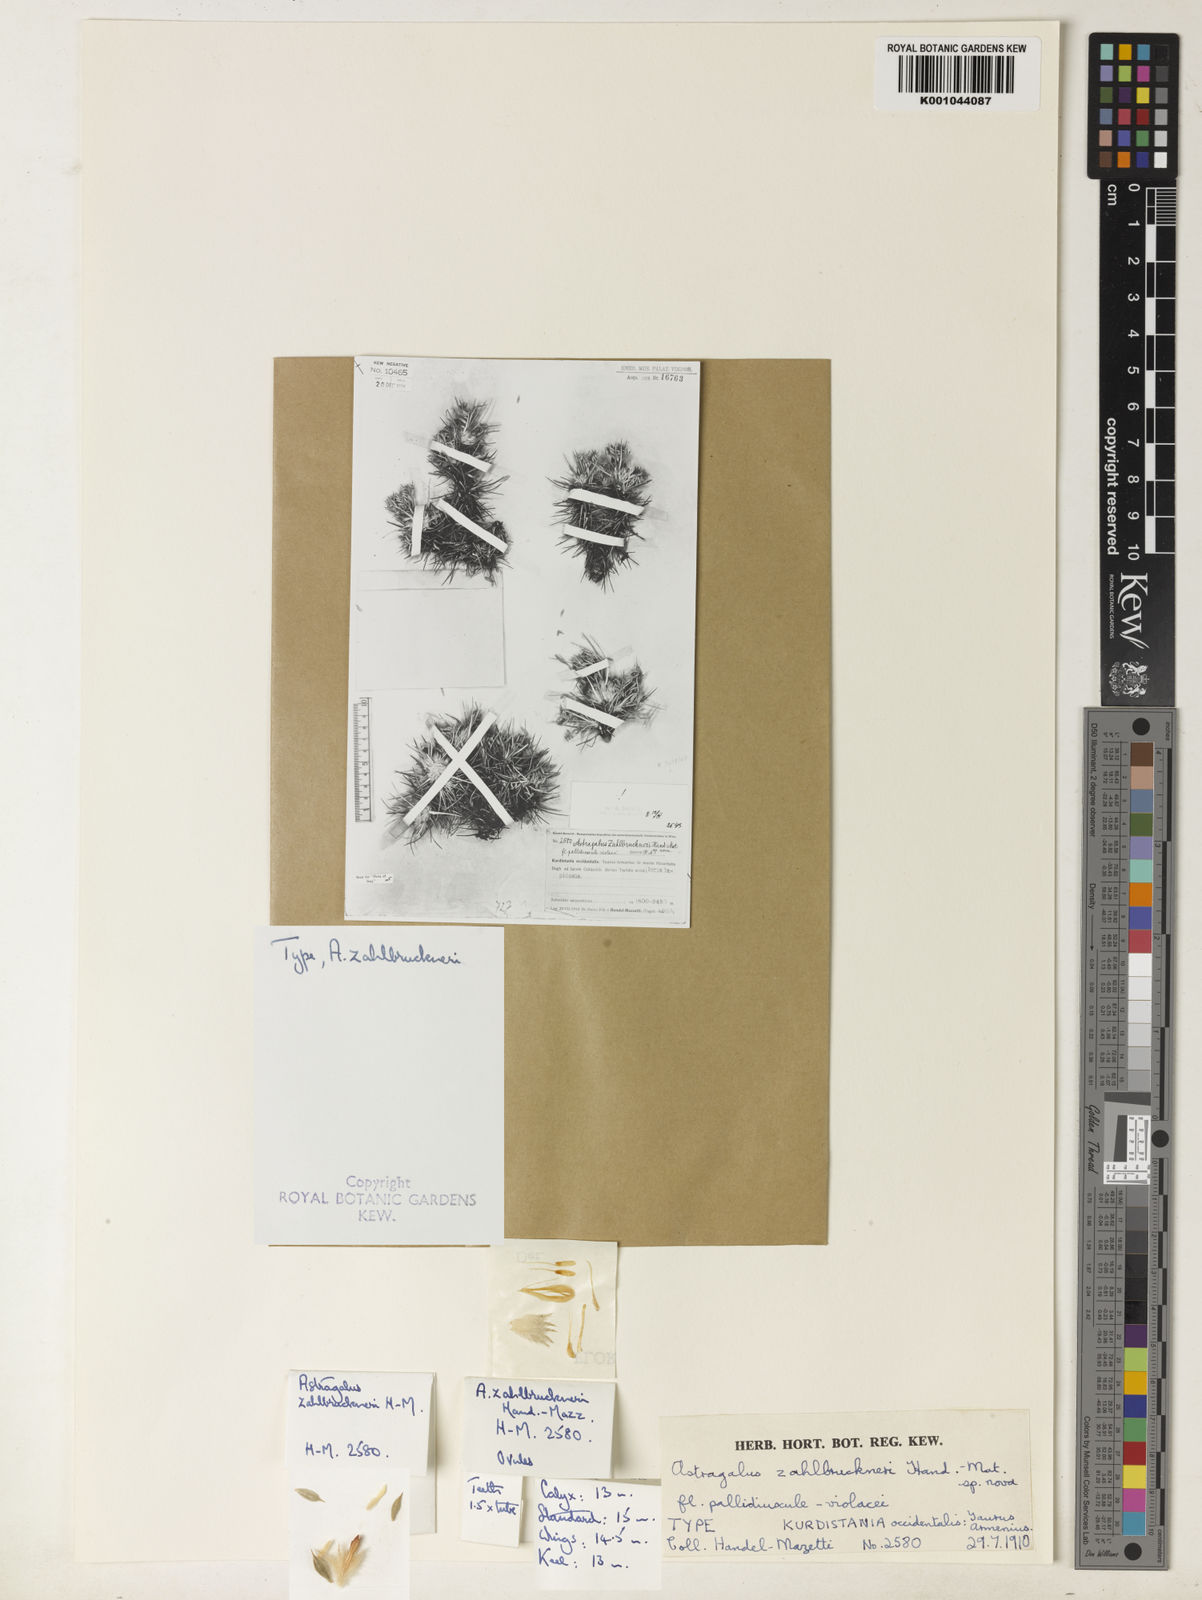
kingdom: Plantae
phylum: Tracheophyta
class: Magnoliopsida
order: Fabales
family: Fabaceae
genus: Astragalus
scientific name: Astragalus pycnocephalus
